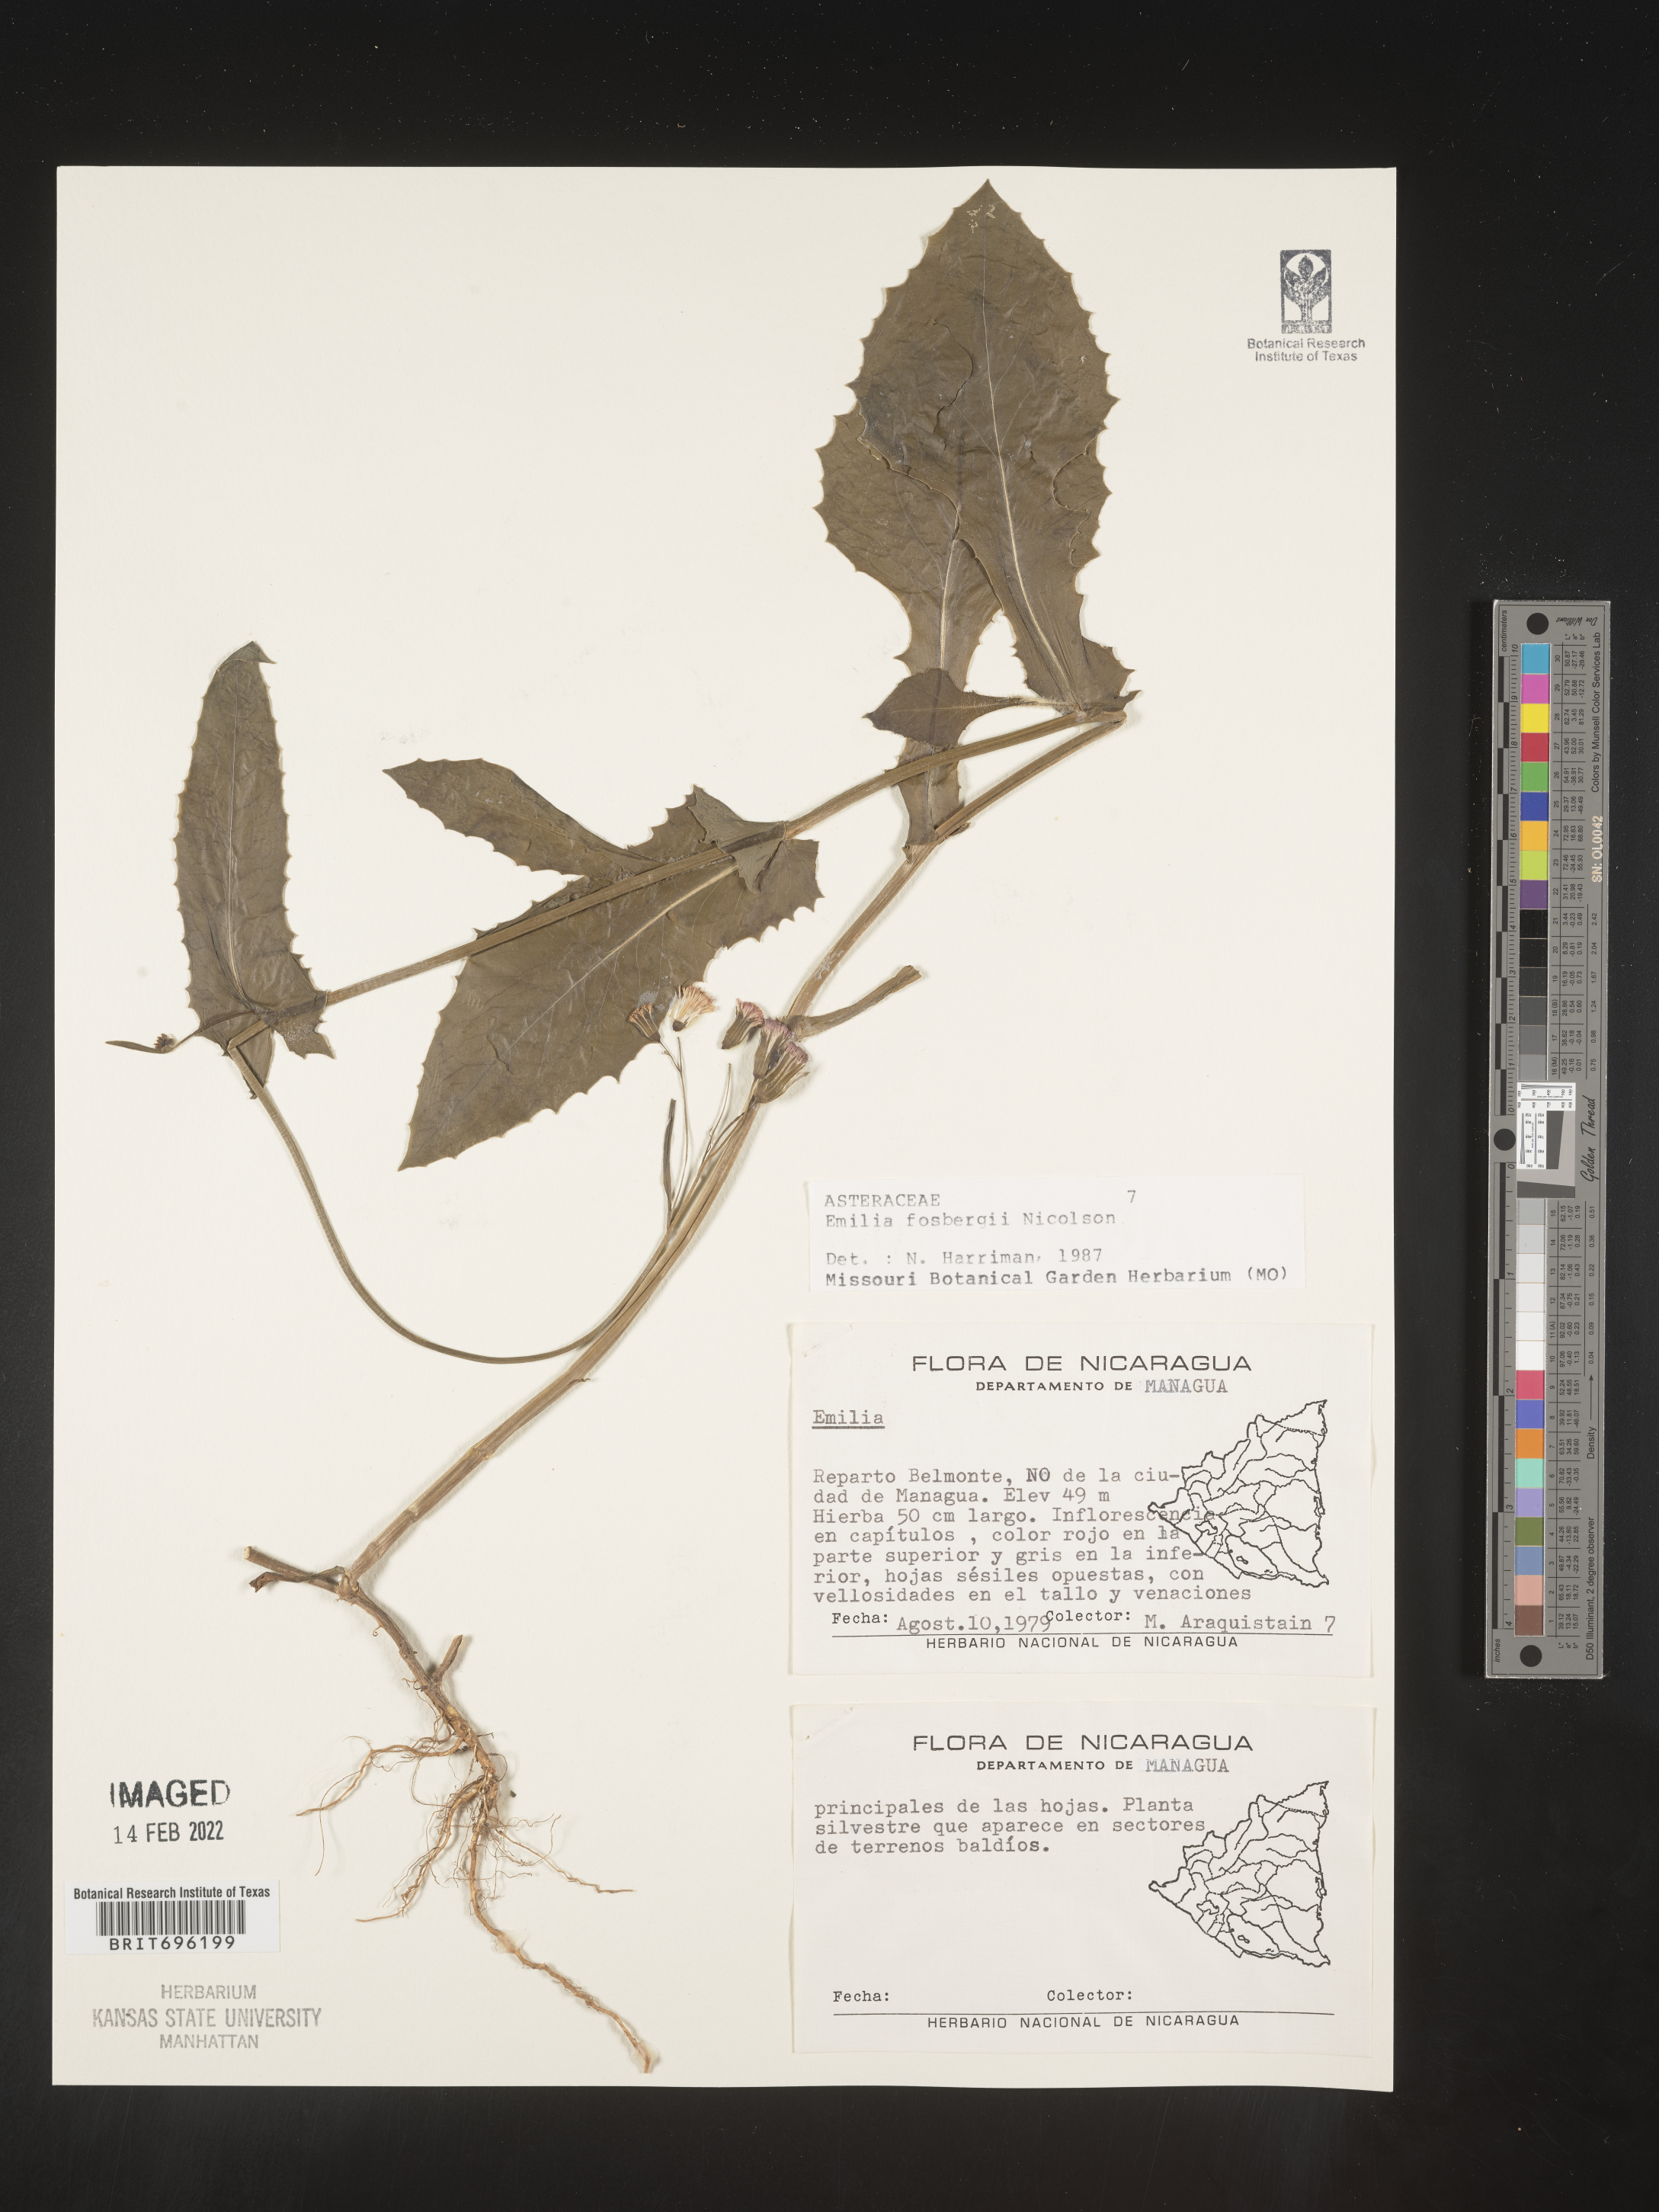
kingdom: Plantae
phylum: Tracheophyta
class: Magnoliopsida
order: Asterales
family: Asteraceae
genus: Emilia
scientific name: Emilia
